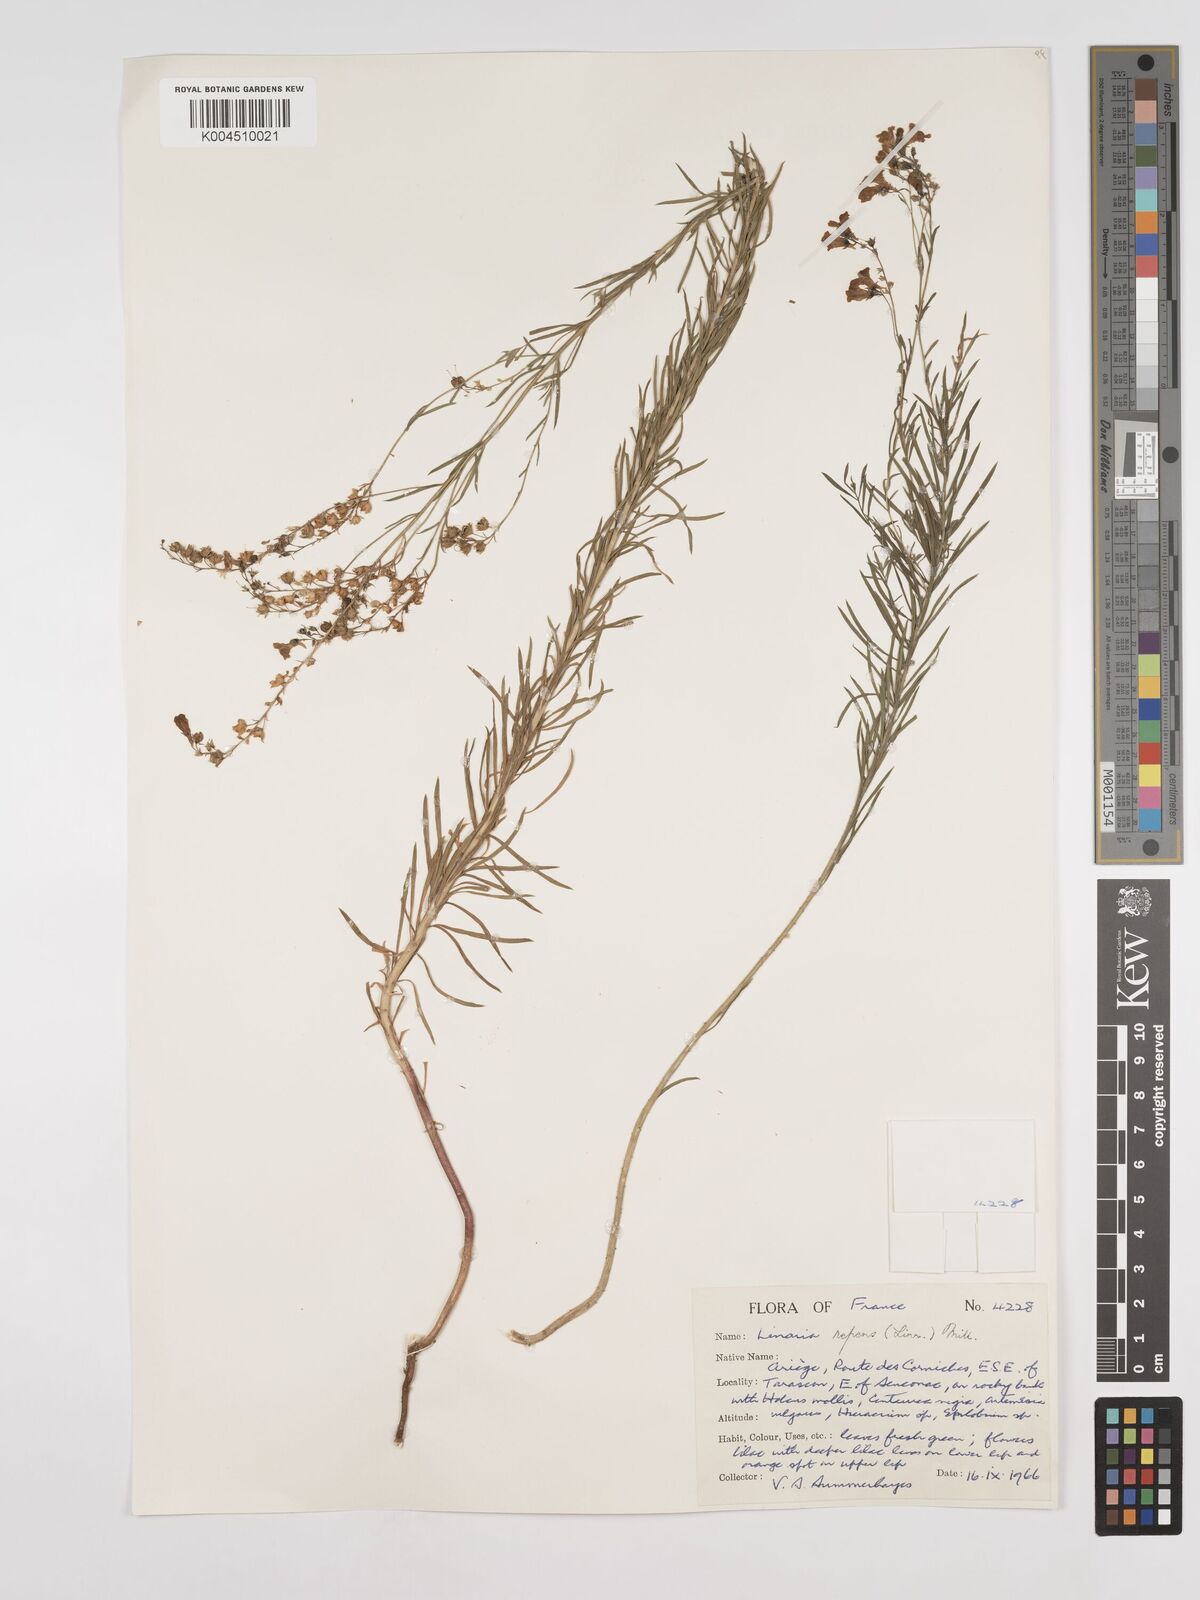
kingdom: Plantae
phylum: Tracheophyta
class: Magnoliopsida
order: Lamiales
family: Plantaginaceae
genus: Linaria
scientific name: Linaria repens
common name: Pale toadflax
